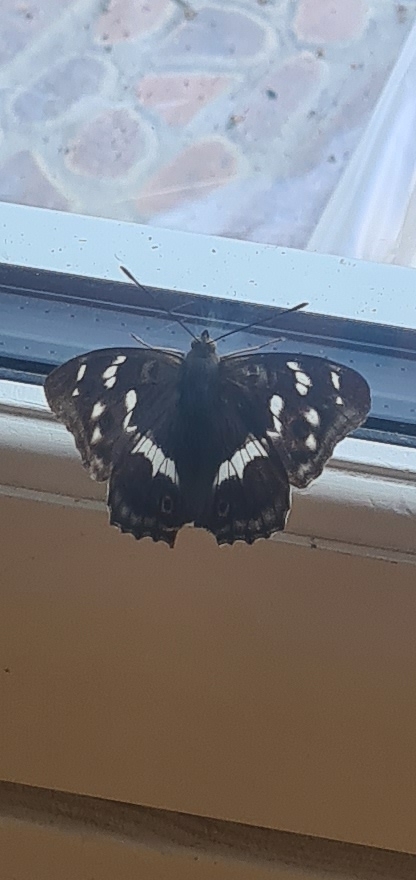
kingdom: Animalia
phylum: Arthropoda
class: Insecta
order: Lepidoptera
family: Nymphalidae
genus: Apatura
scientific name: Apatura iris
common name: Iris
